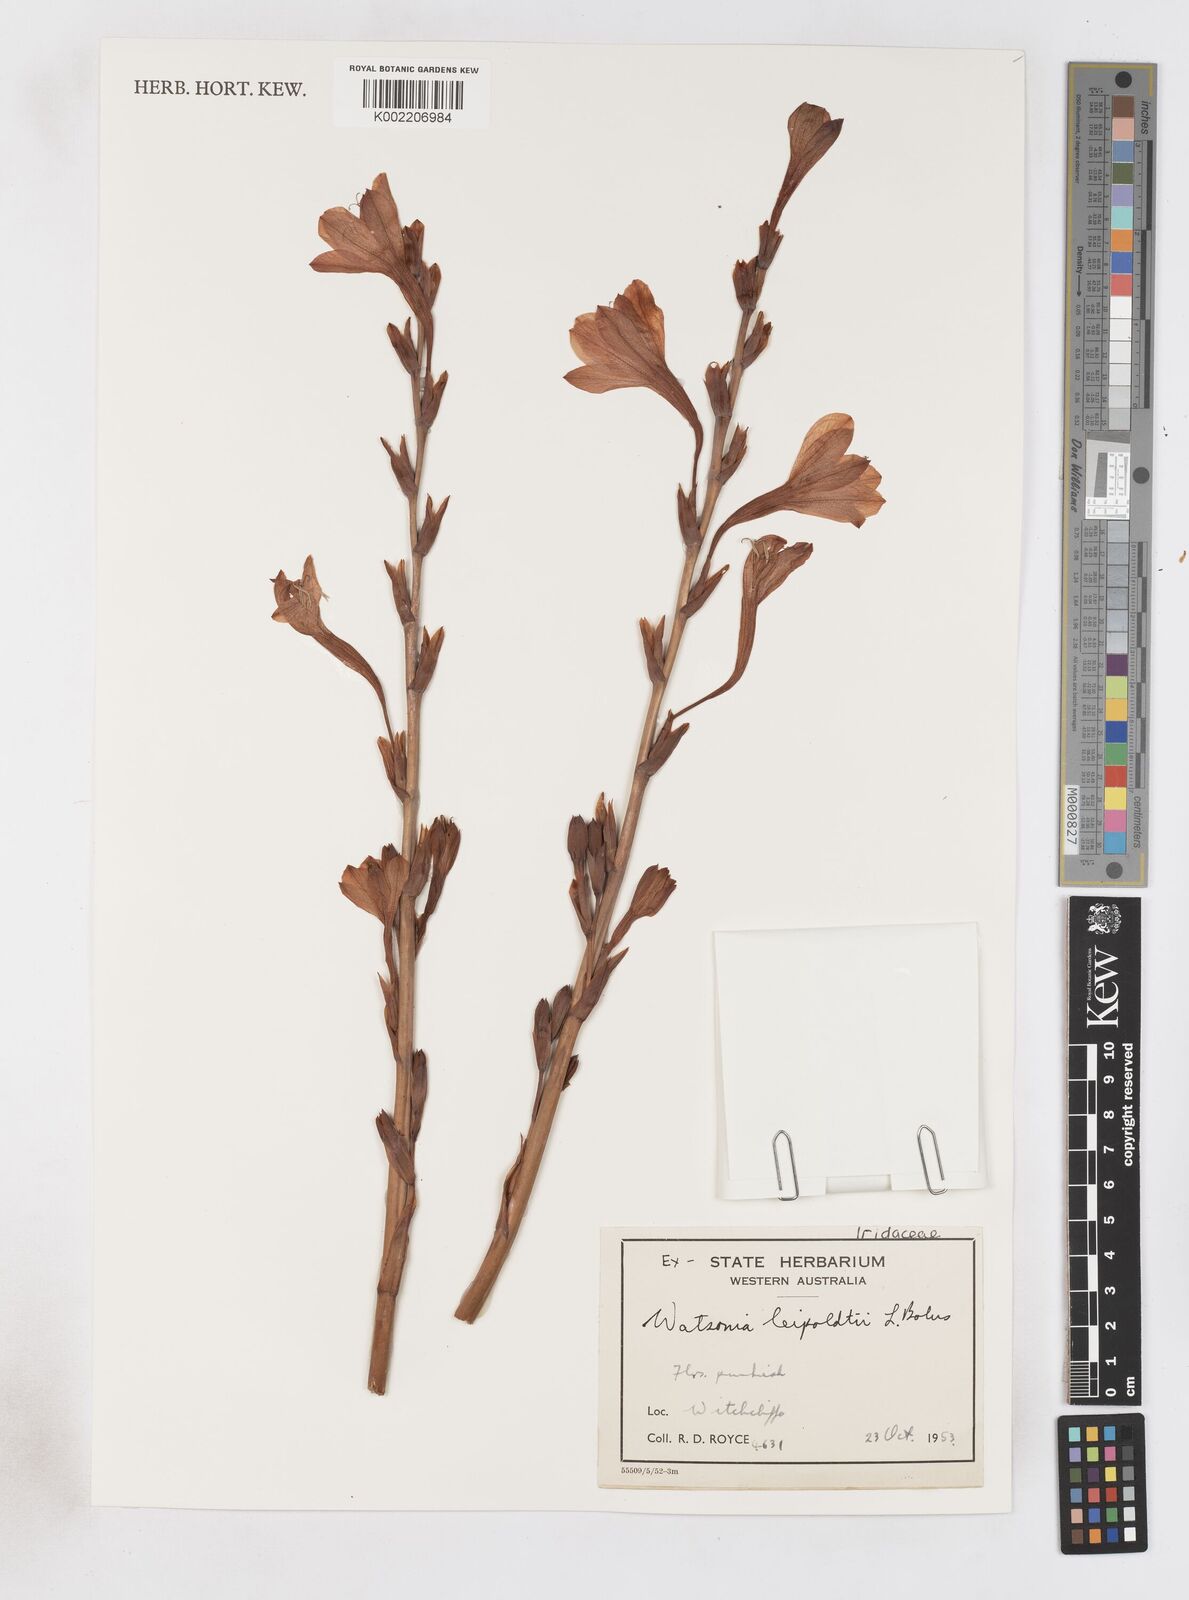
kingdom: Plantae
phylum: Tracheophyta
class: Liliopsida
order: Asparagales
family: Iridaceae
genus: Pillansia
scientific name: Pillansia
